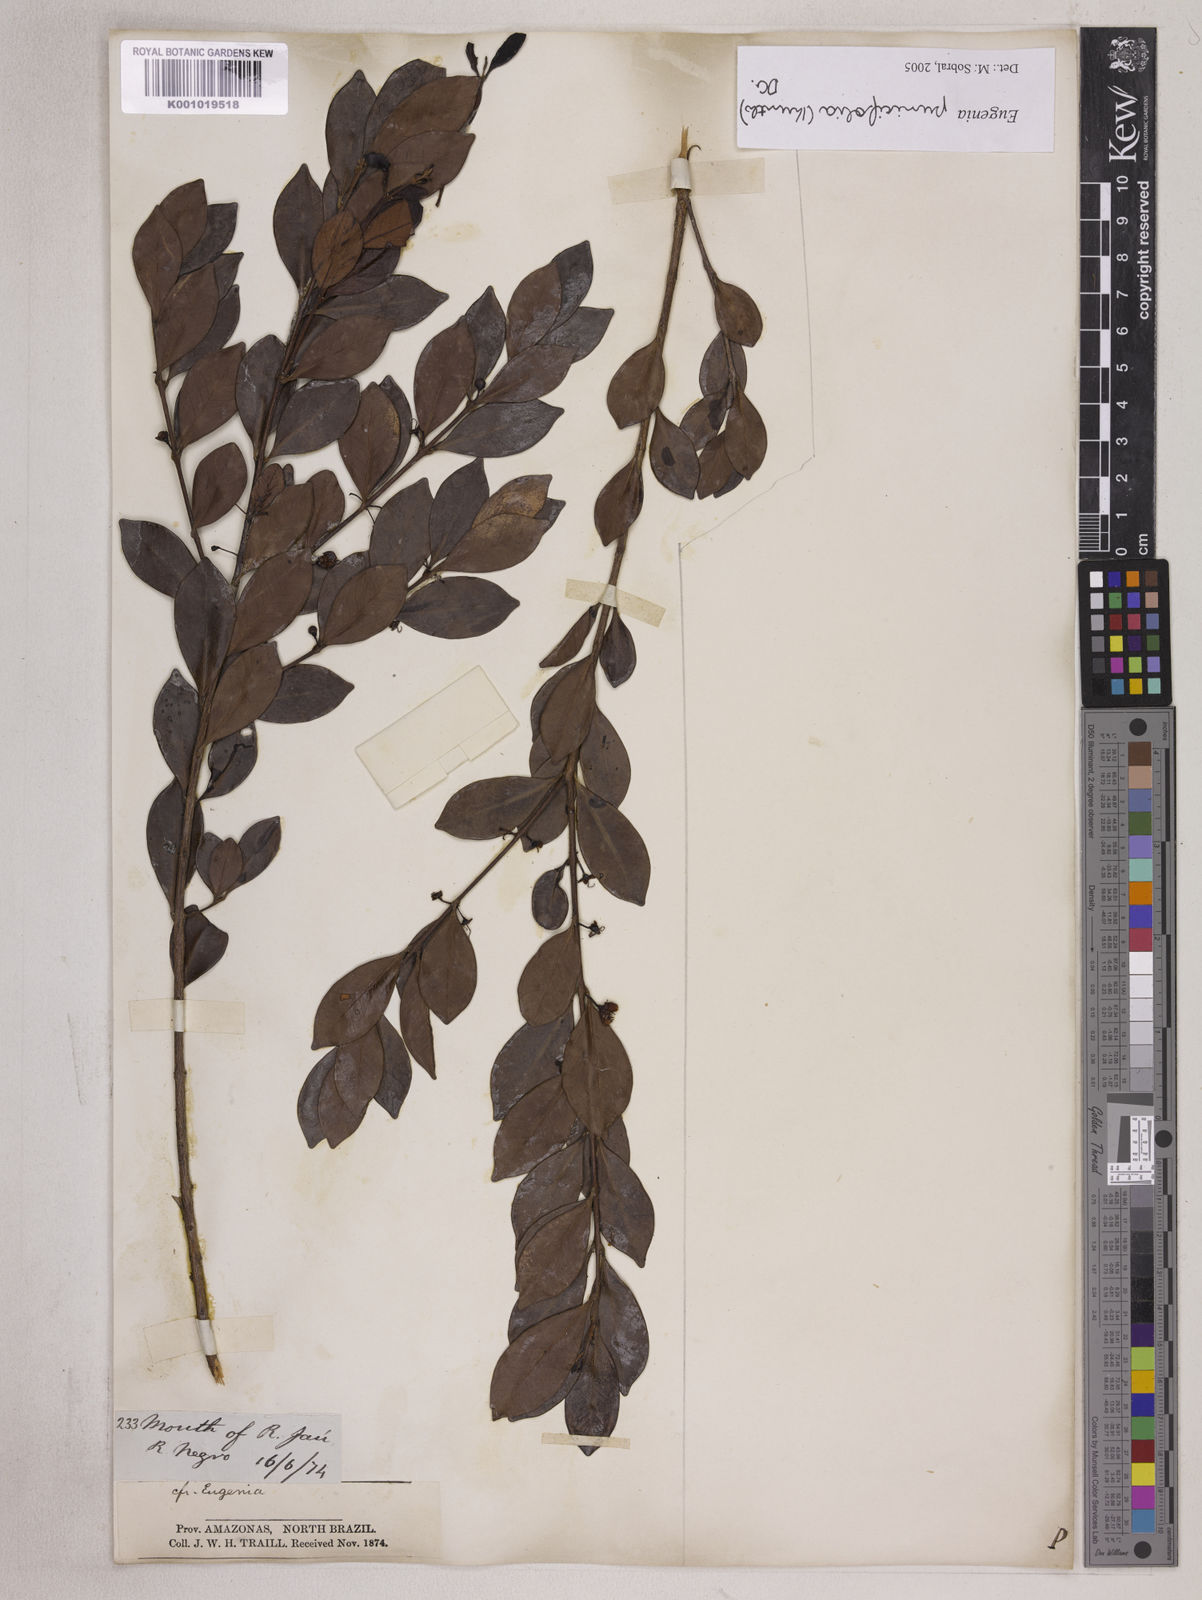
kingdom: Plantae
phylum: Tracheophyta
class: Magnoliopsida
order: Myrtales
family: Myrtaceae
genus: Eugenia
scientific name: Eugenia punicifolia
